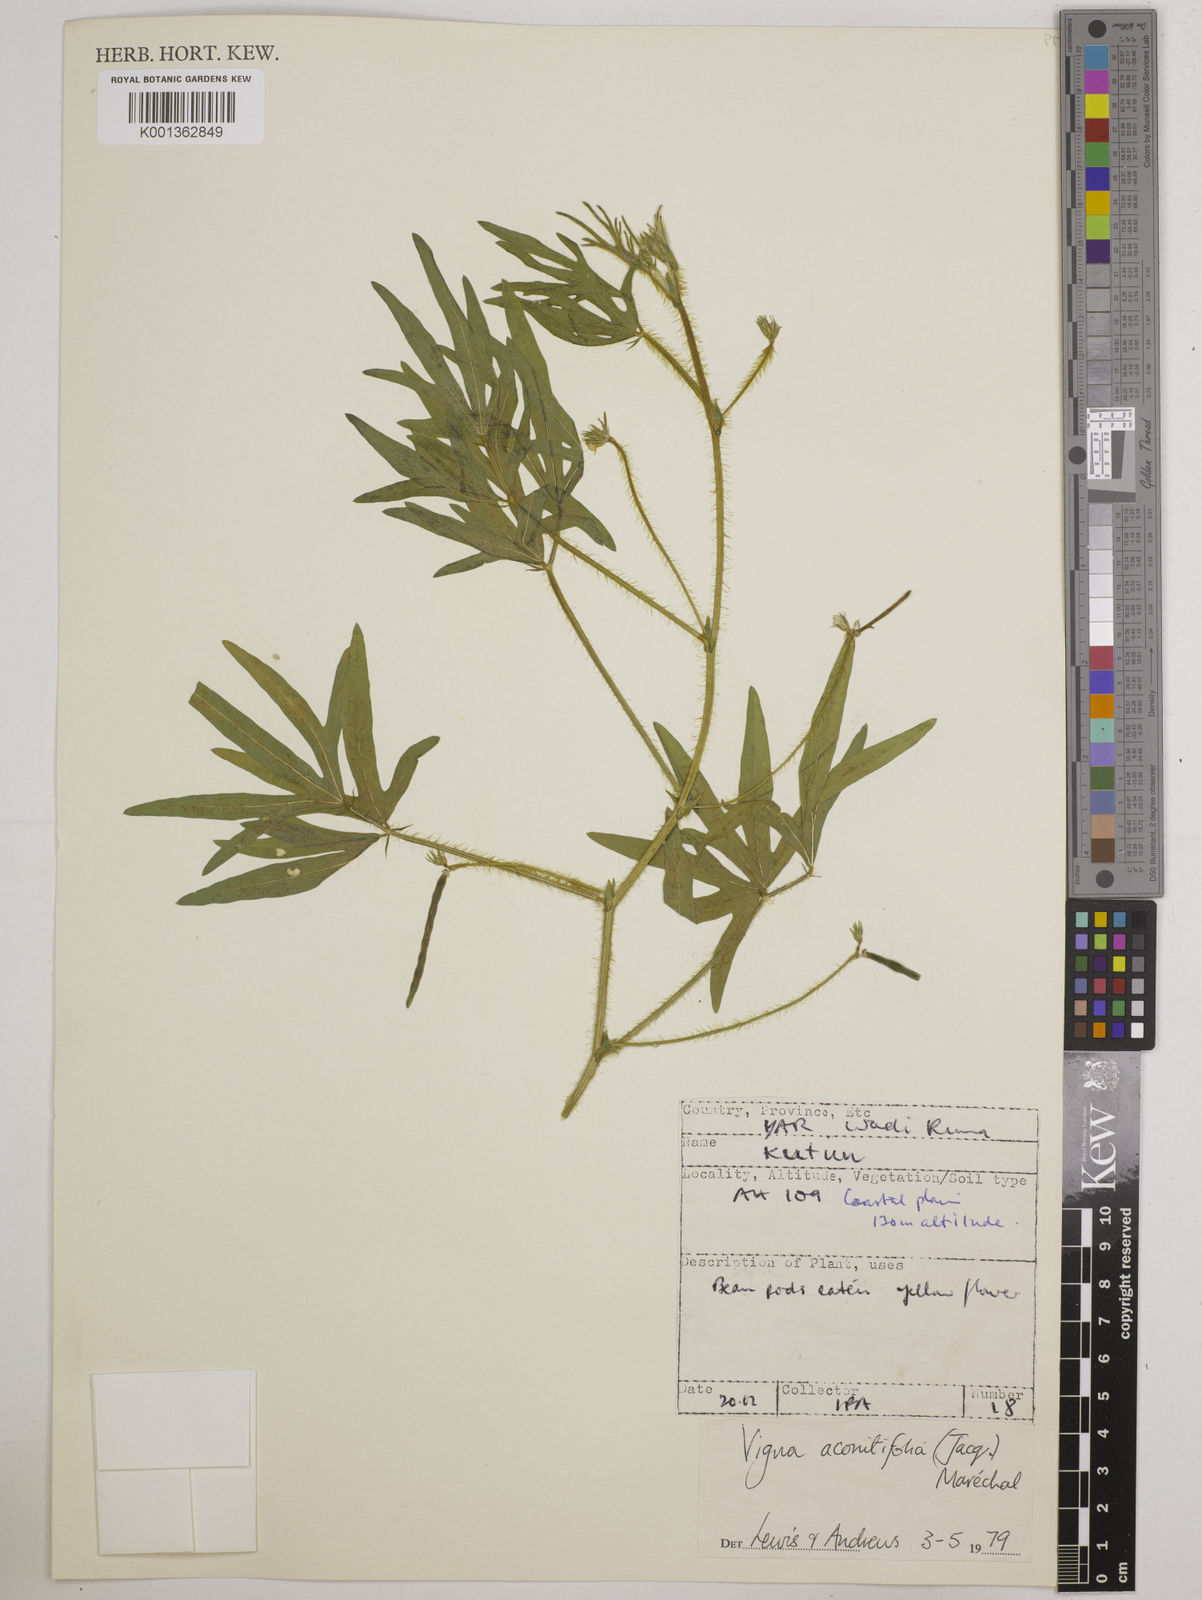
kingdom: Plantae
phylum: Tracheophyta
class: Magnoliopsida
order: Fabales
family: Fabaceae
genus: Vigna
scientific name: Vigna aconitifolia
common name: Dew bean
